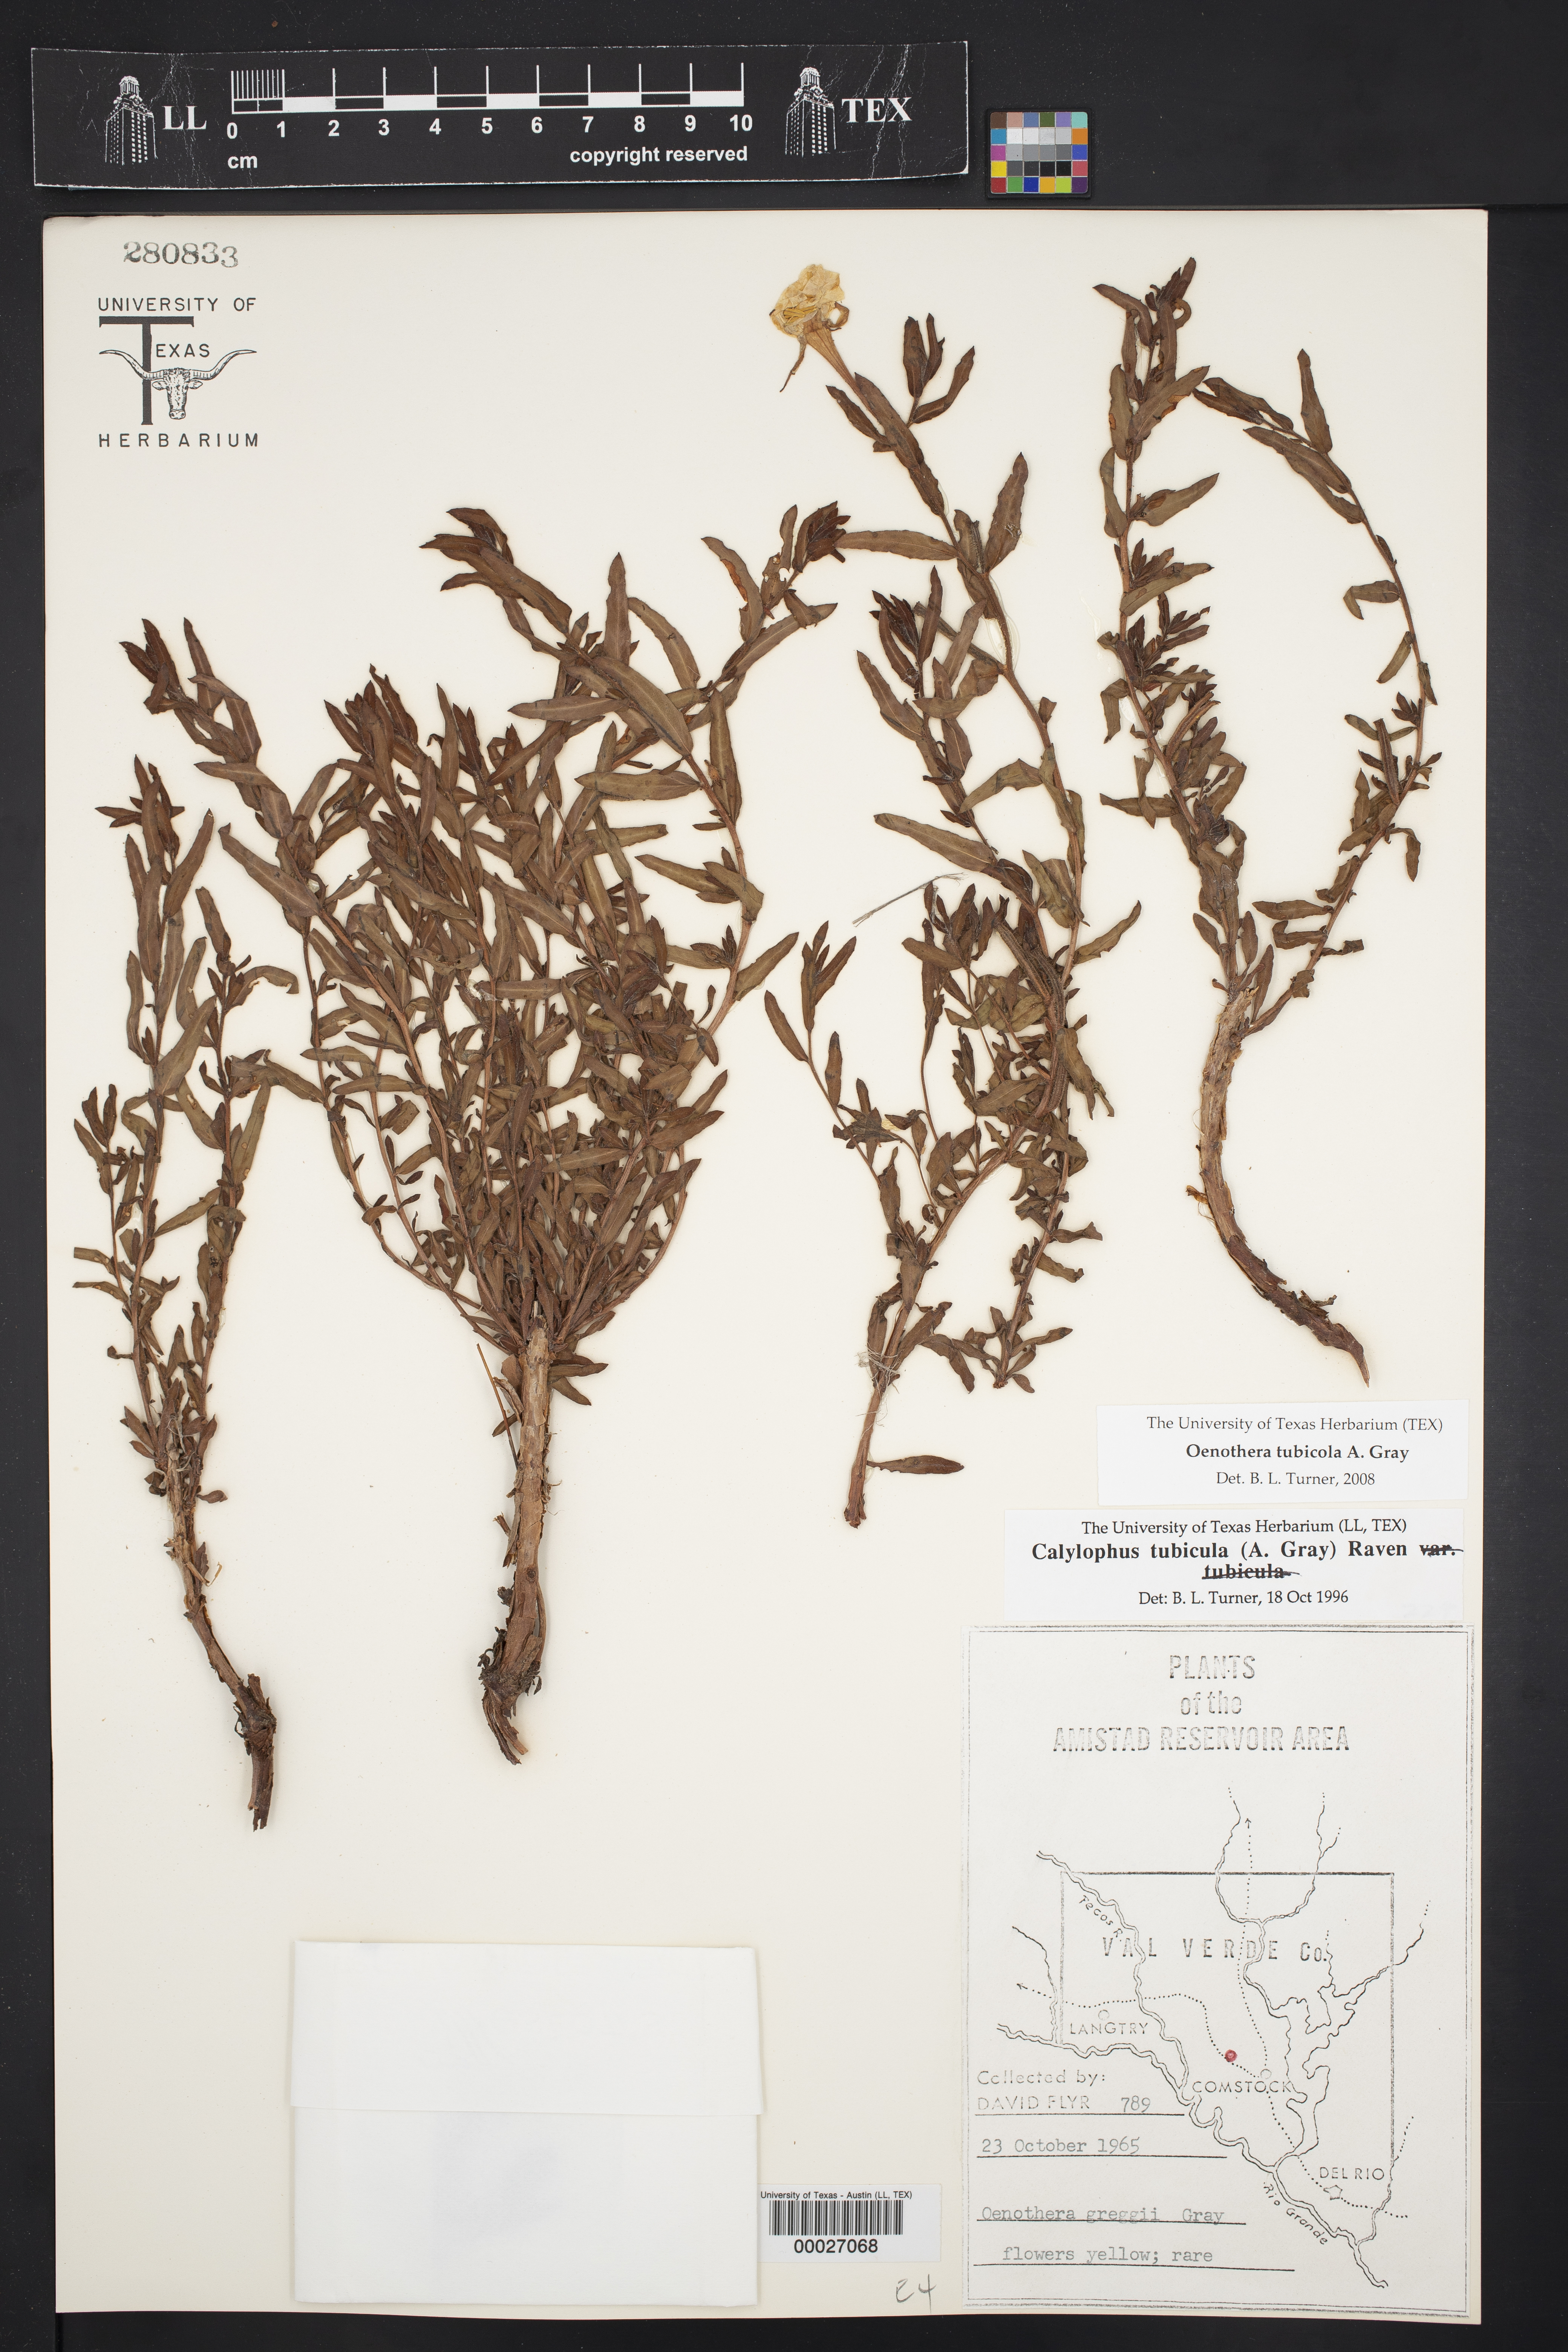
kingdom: Plantae
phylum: Tracheophyta
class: Magnoliopsida
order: Myrtales
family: Onagraceae
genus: Oenothera
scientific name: Oenothera tubicula
